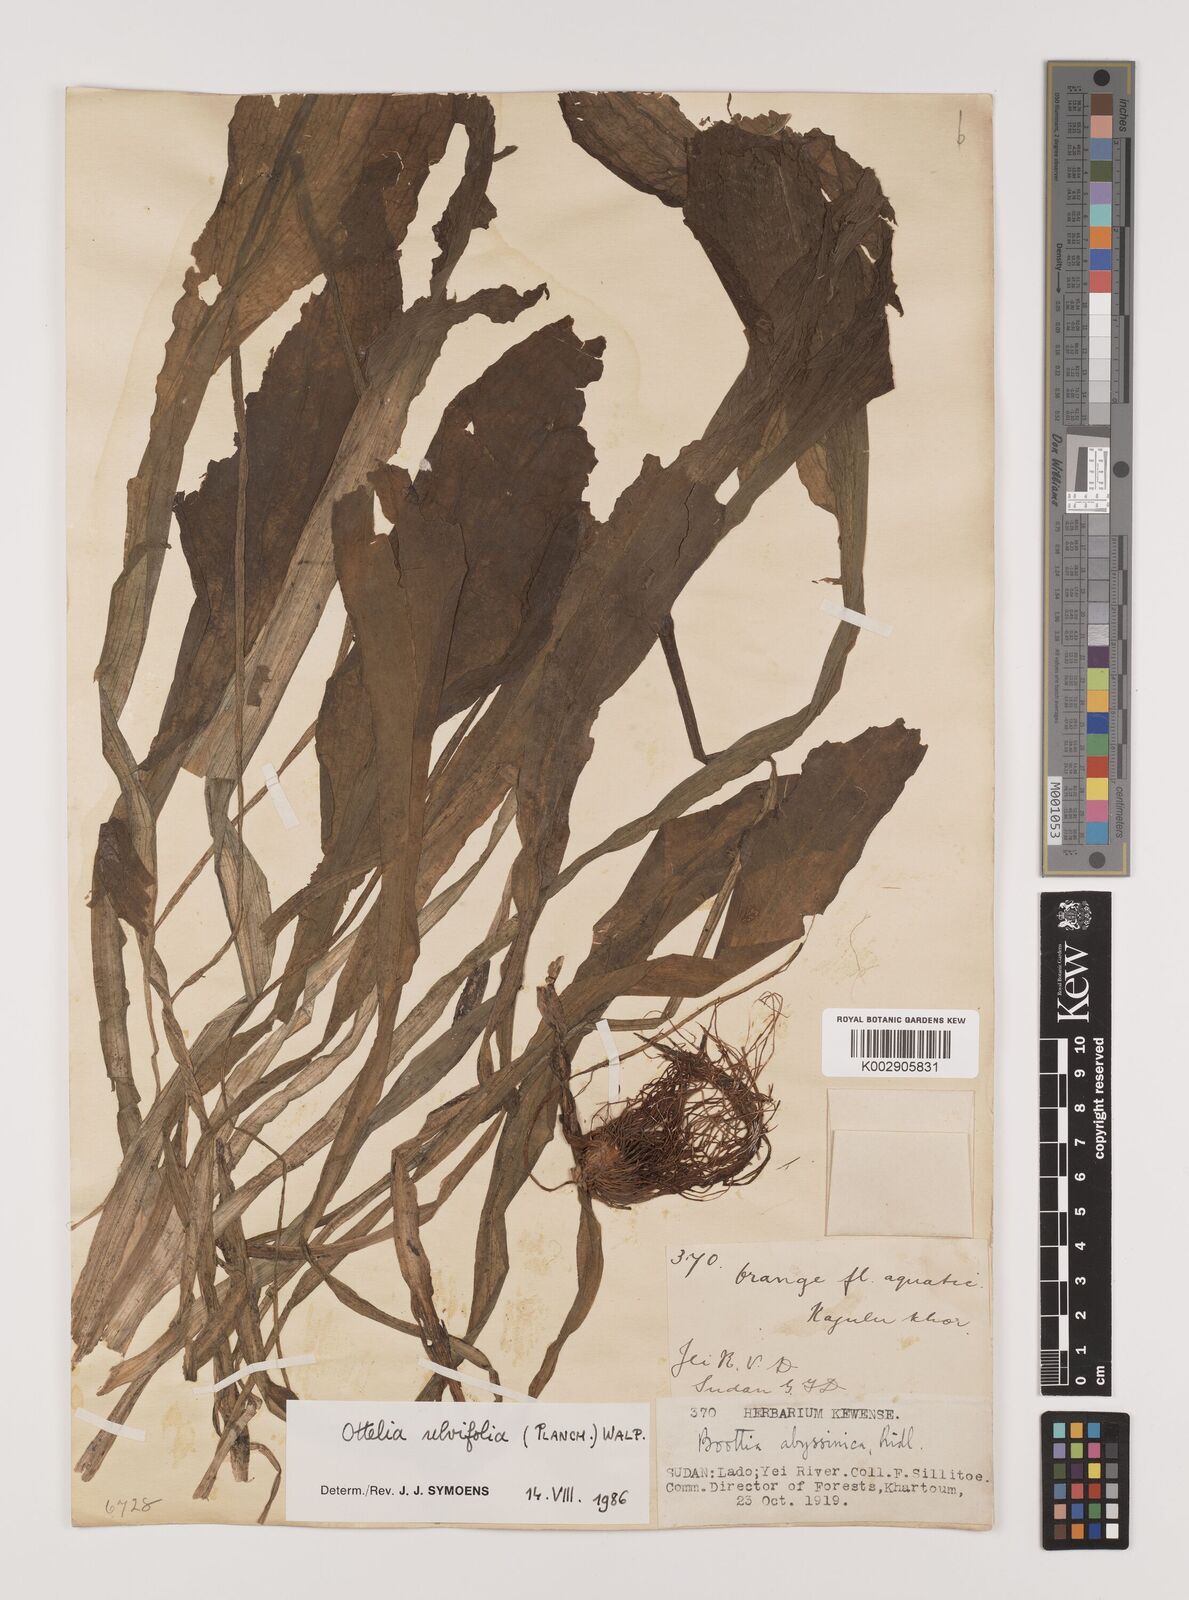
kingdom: Plantae
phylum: Tracheophyta
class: Liliopsida
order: Alismatales
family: Hydrocharitaceae
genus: Ottelia
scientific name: Ottelia ulvifolia
